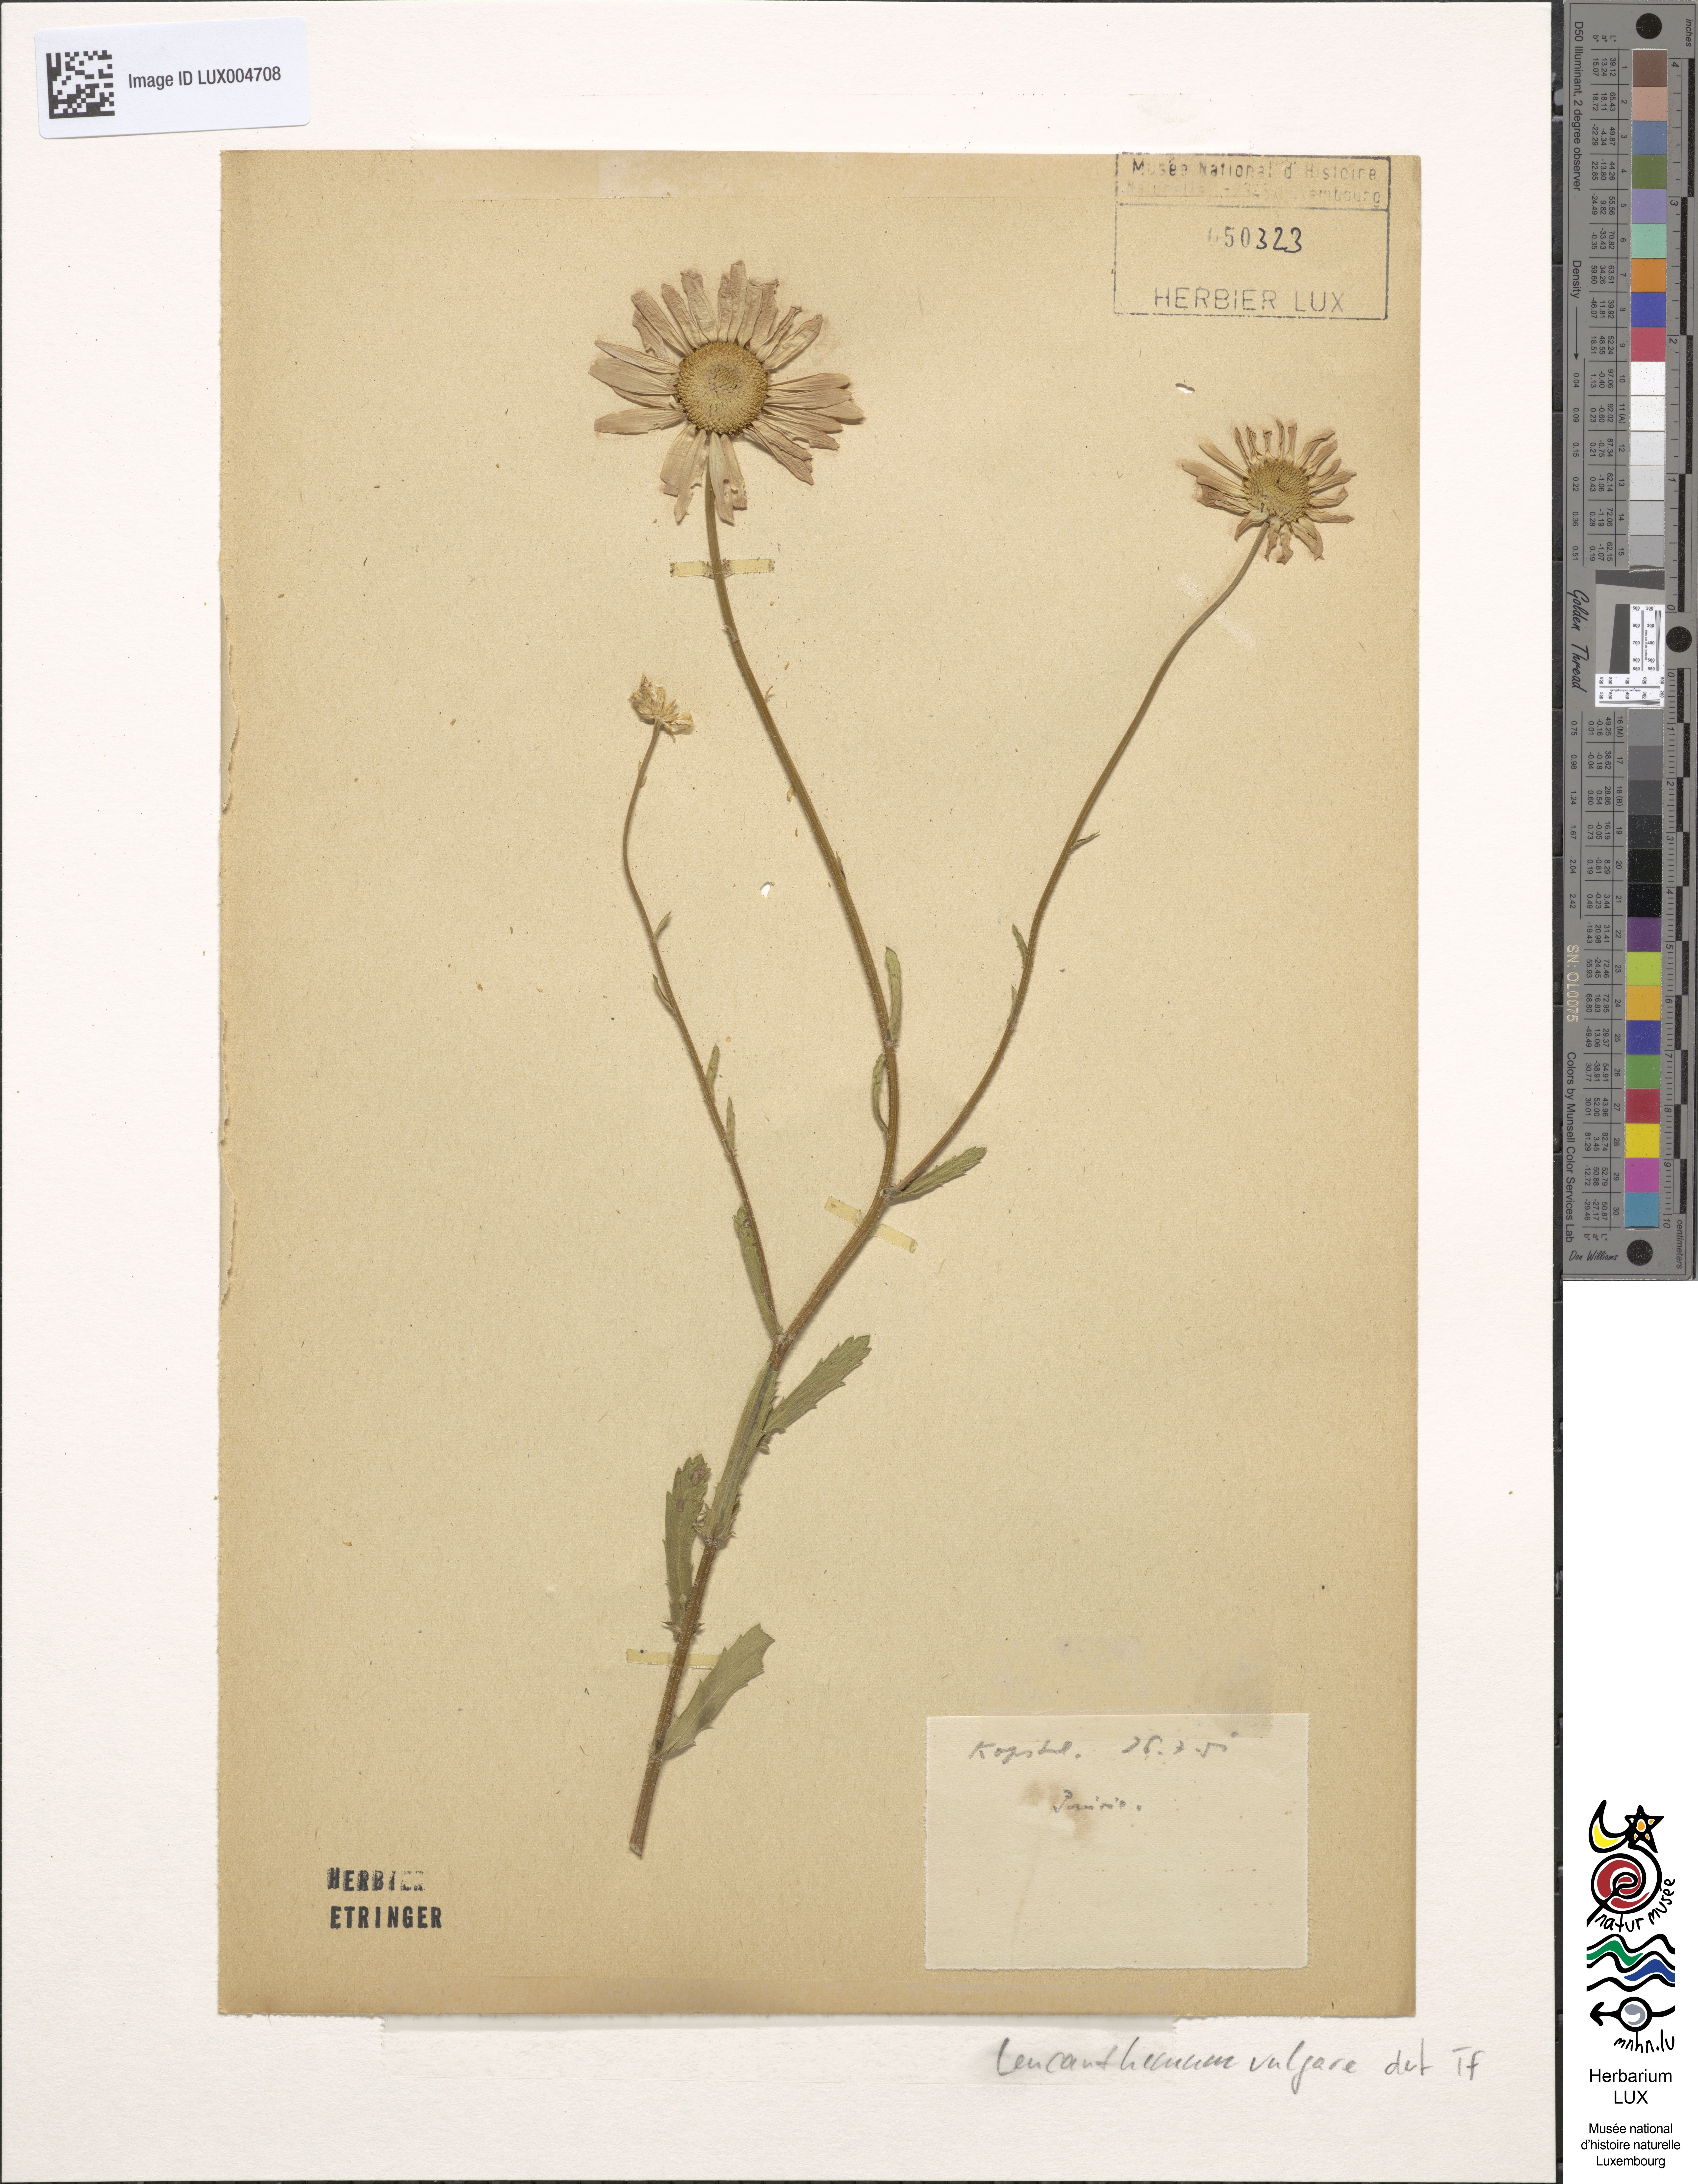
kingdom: Plantae
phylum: Tracheophyta
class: Magnoliopsida
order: Asterales
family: Asteraceae
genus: Leucanthemum
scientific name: Leucanthemum vulgare
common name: Oxeye daisy
